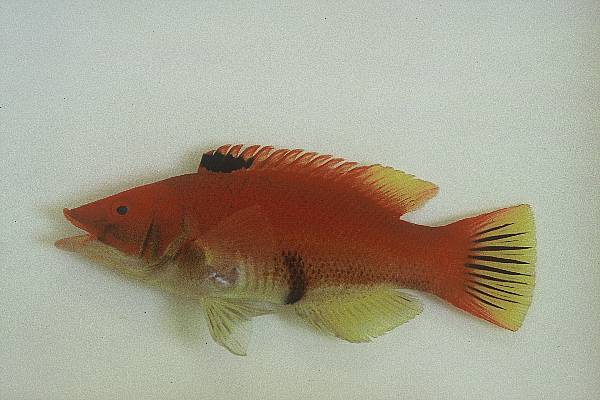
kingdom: Animalia
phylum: Chordata
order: Perciformes
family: Labridae
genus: Bodianus
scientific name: Bodianus scrofa
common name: Barred hogfish
